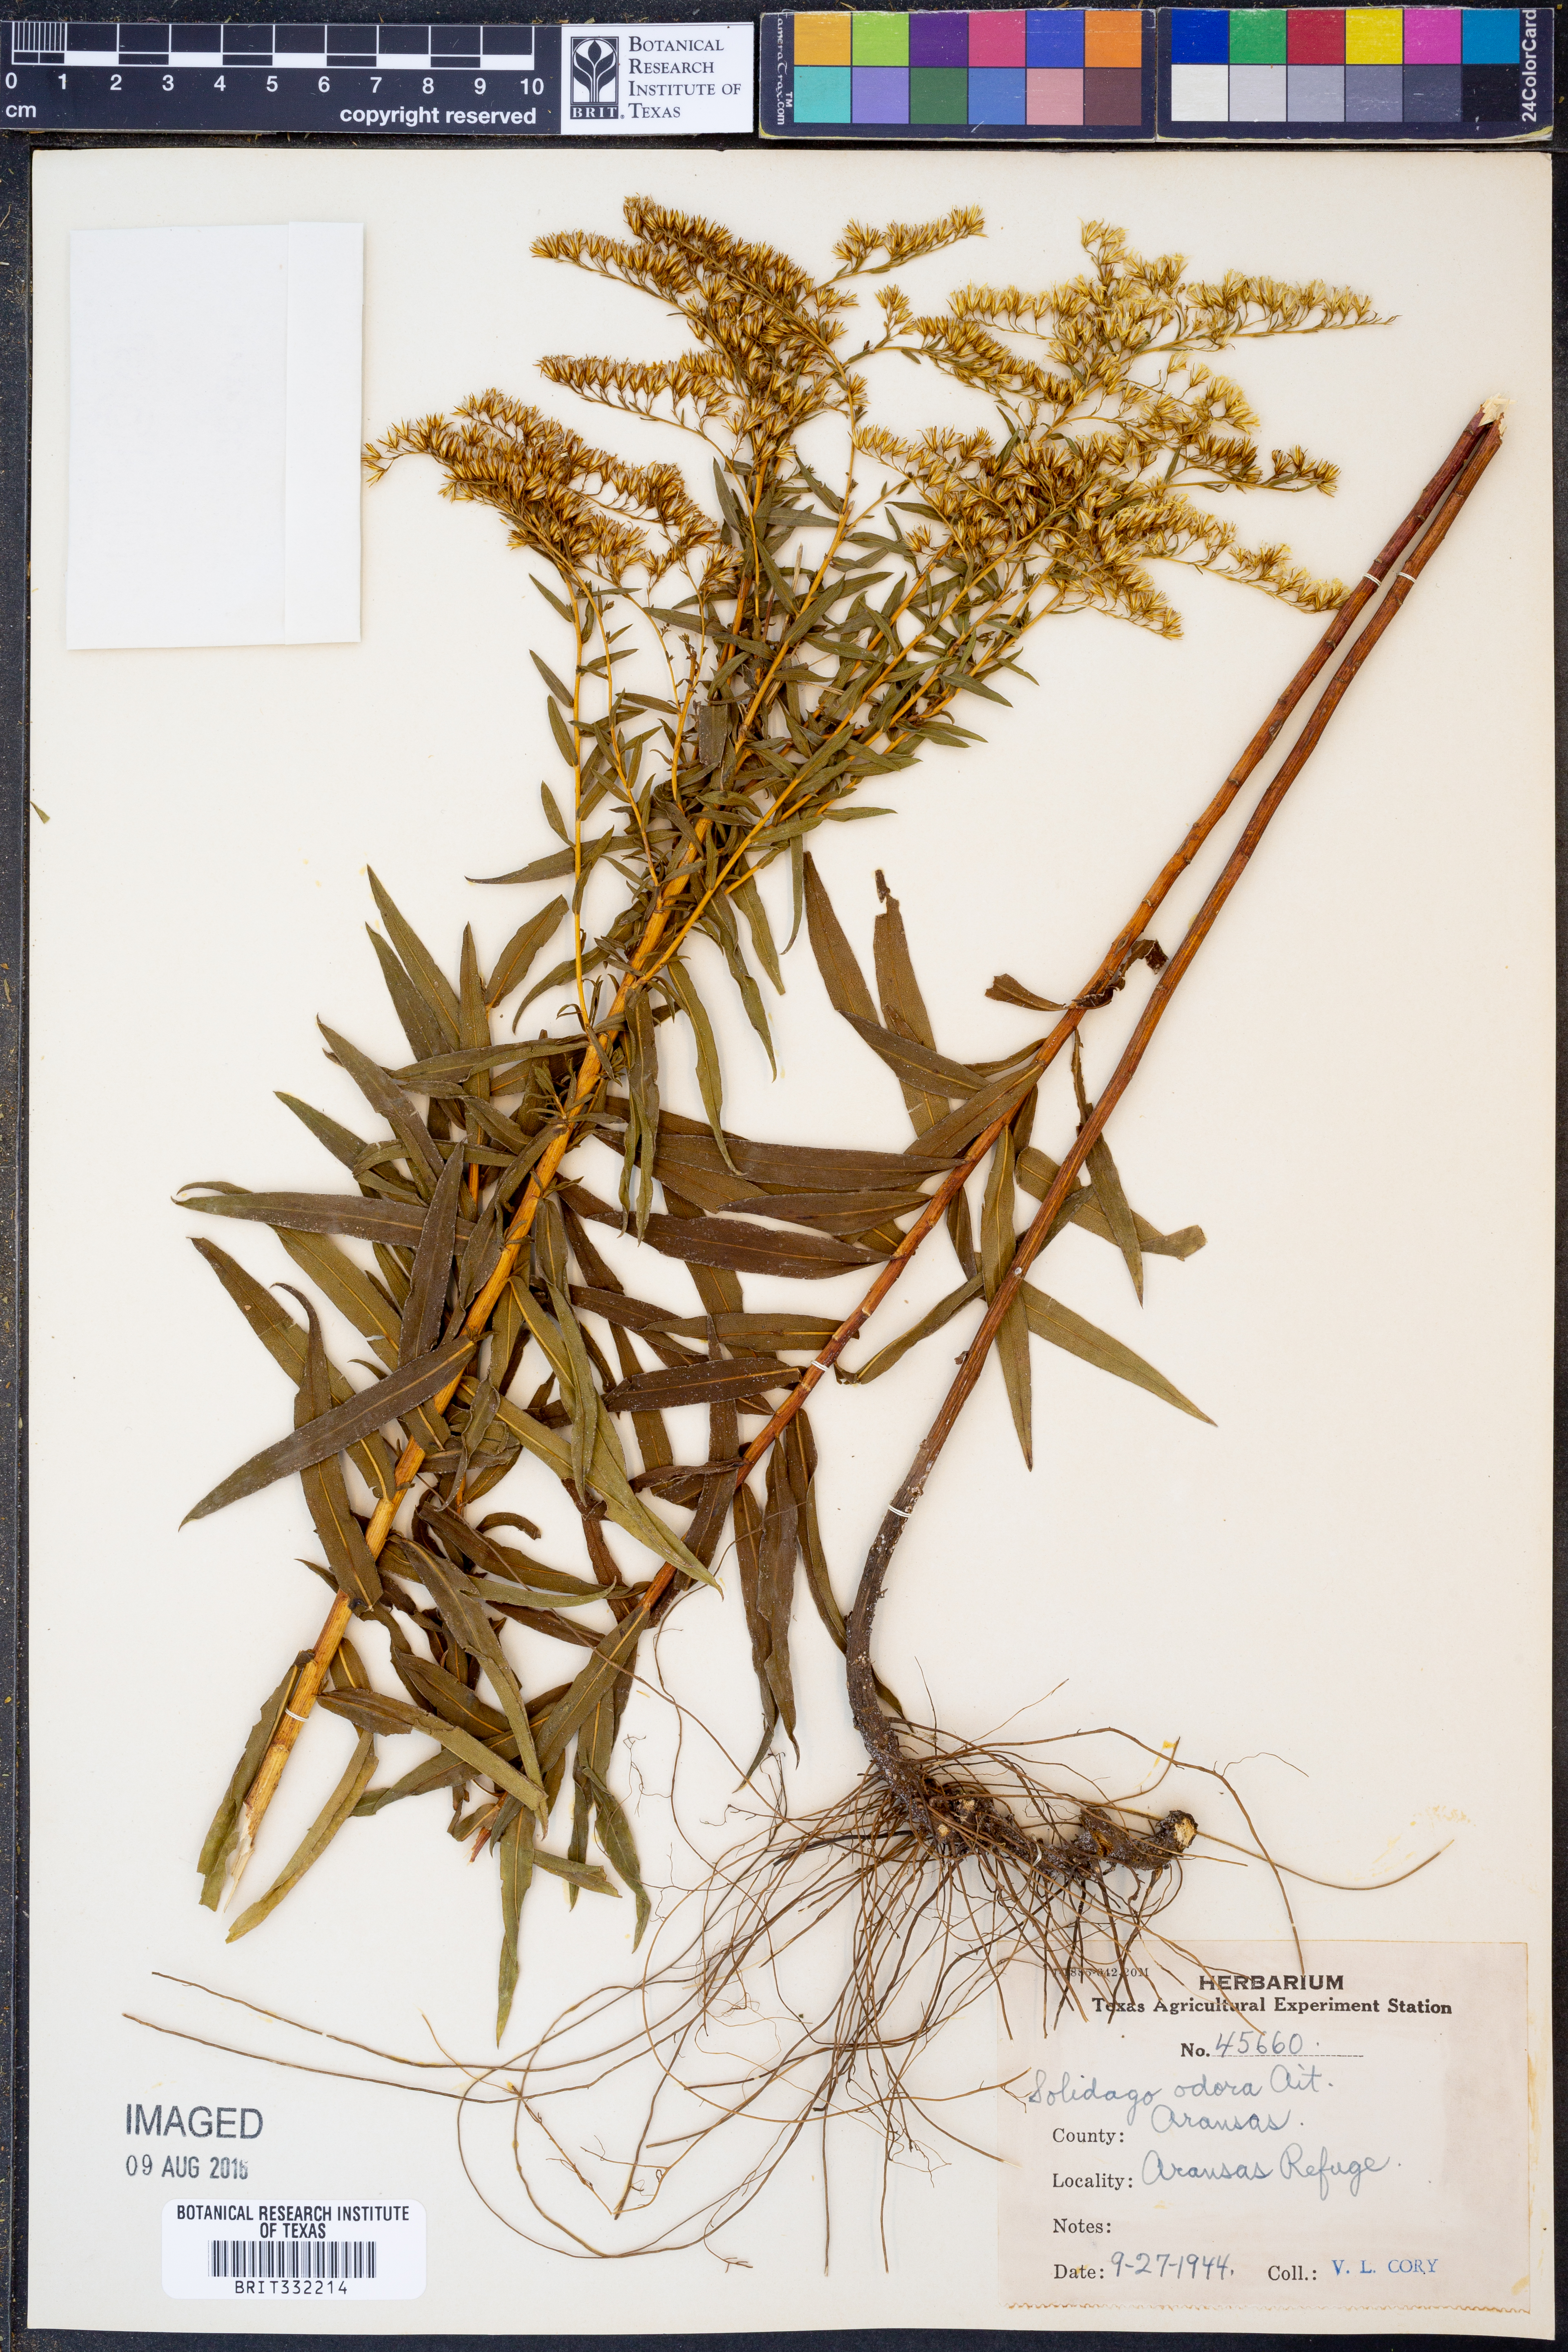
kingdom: Plantae
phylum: Tracheophyta
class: Magnoliopsida
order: Asterales
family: Asteraceae
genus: Solidago
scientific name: Solidago rugosa
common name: Rough-stemmed goldenrod
